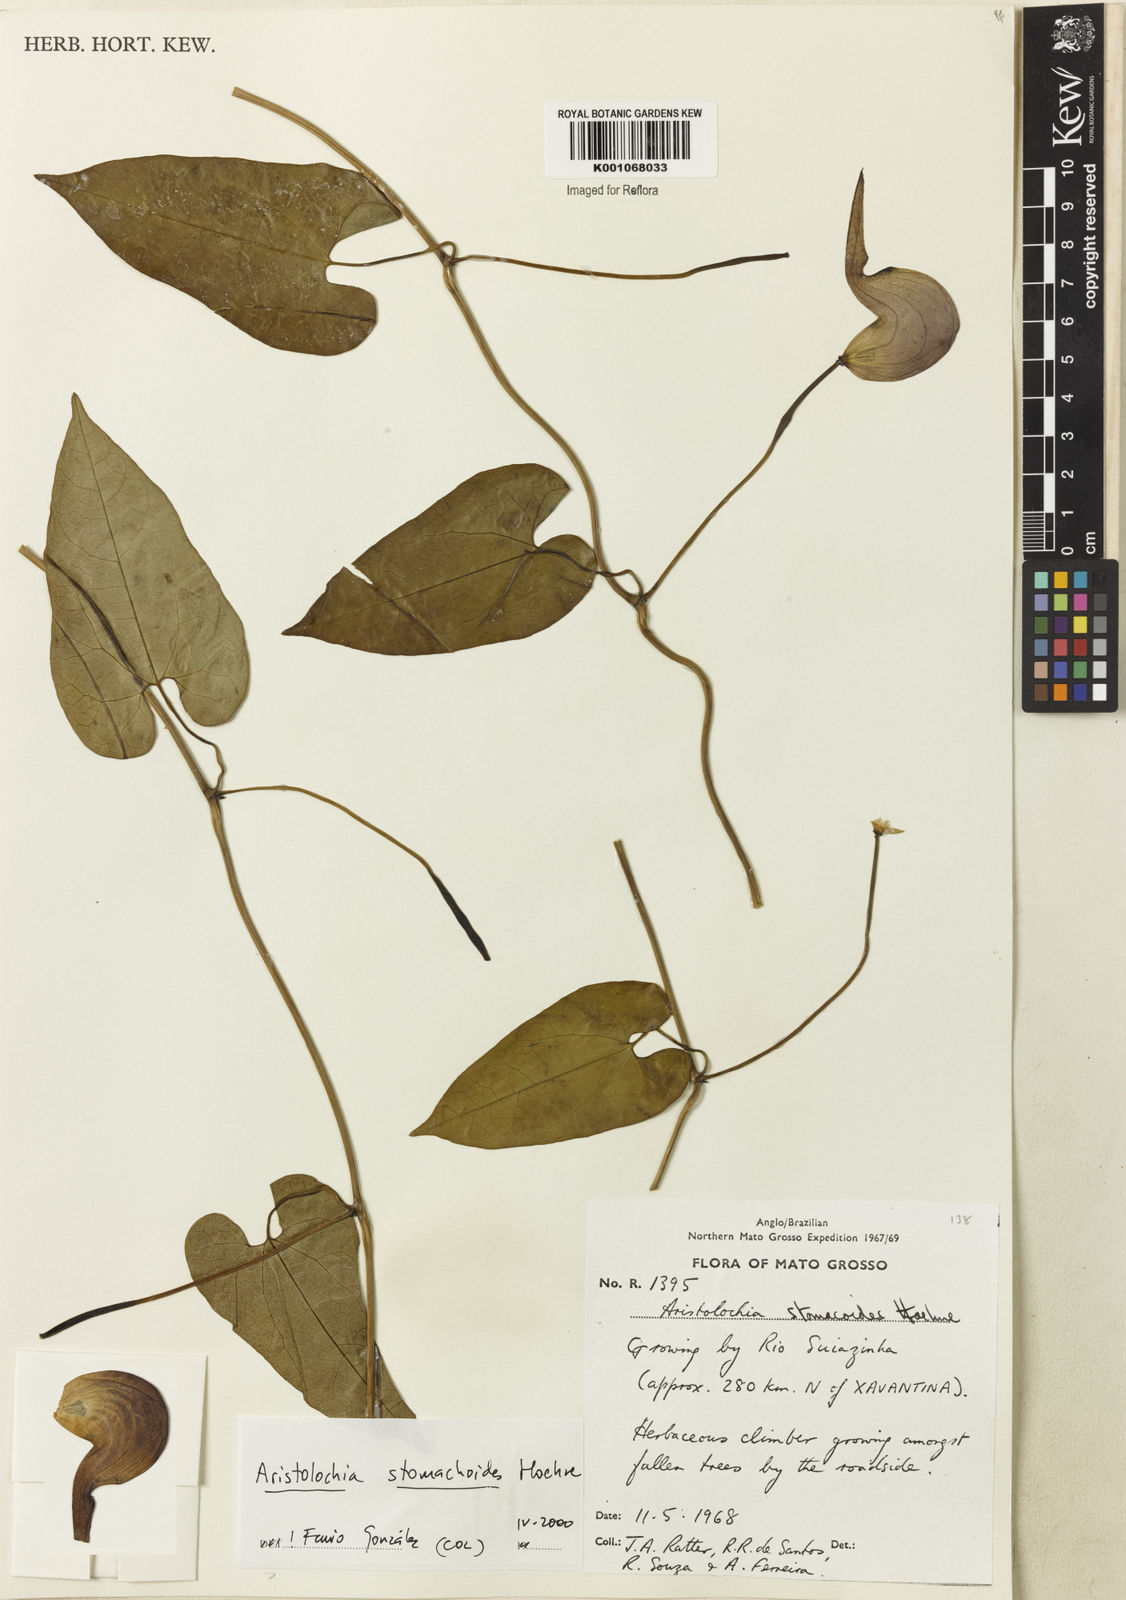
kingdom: Plantae
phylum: Tracheophyta
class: Magnoliopsida
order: Piperales
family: Aristolochiaceae
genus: Aristolochia
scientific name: Aristolochia
